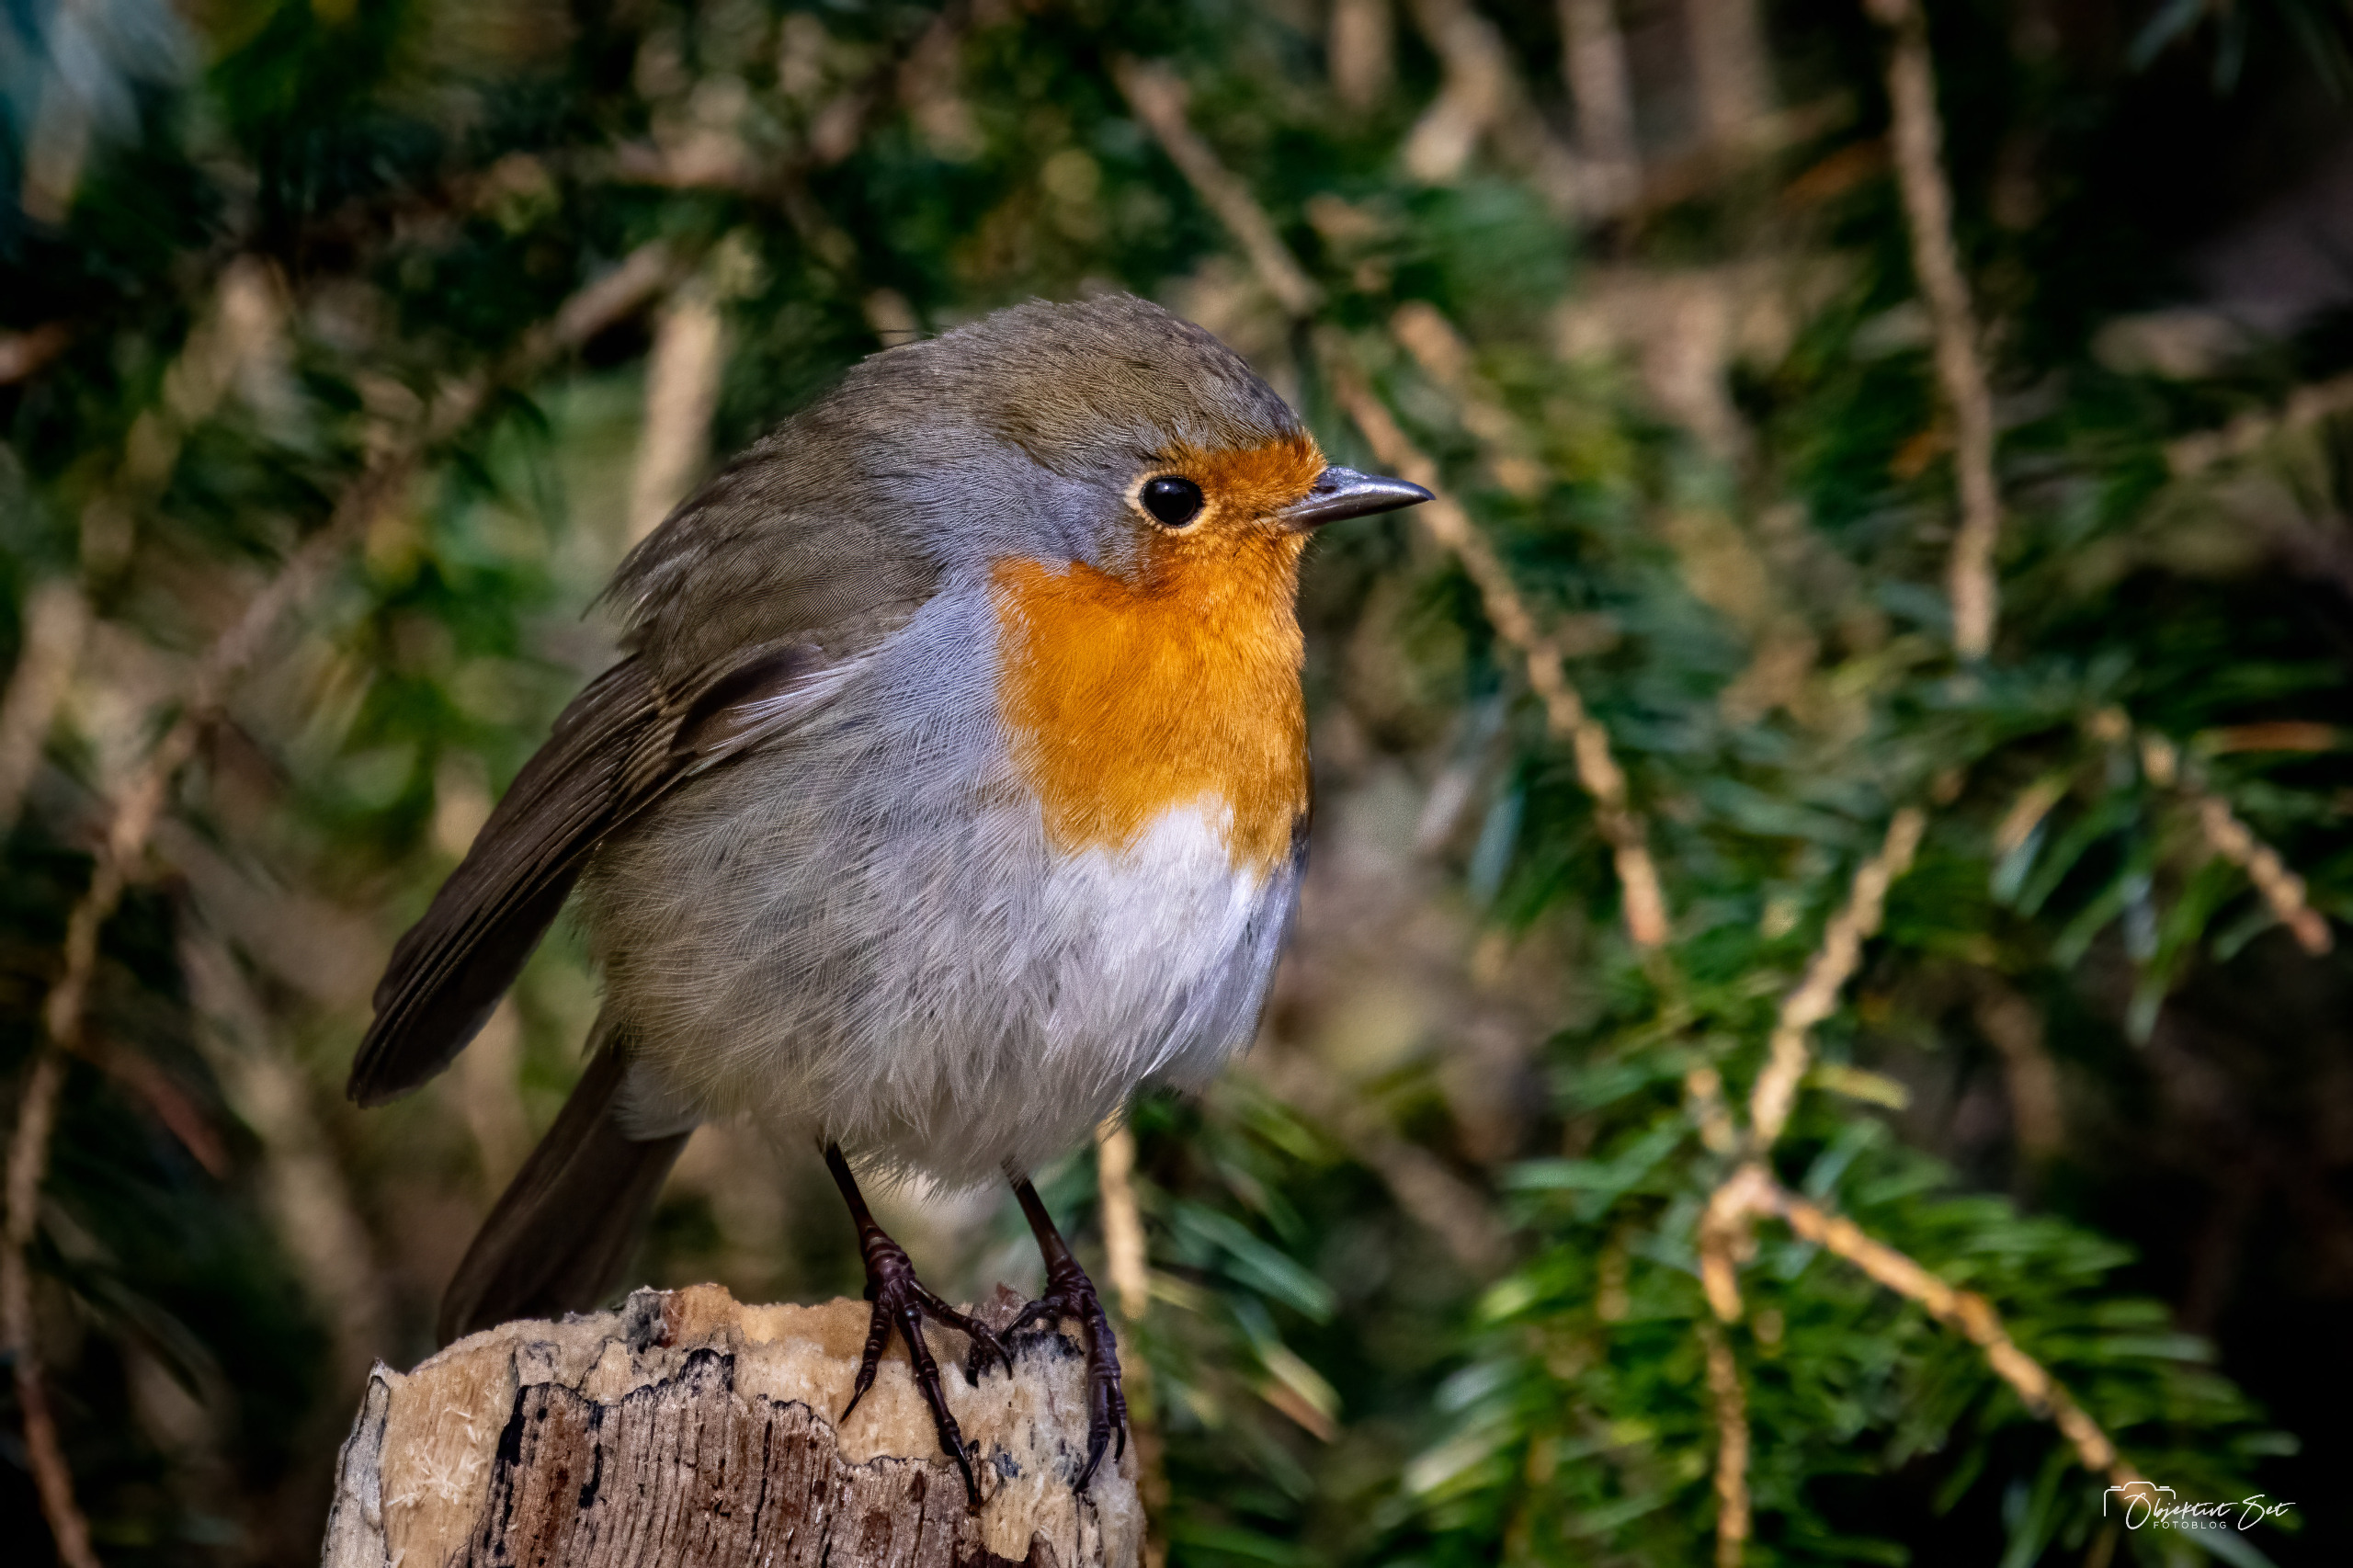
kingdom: Animalia
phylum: Chordata
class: Aves
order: Passeriformes
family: Muscicapidae
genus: Erithacus
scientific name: Erithacus rubecula
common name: Rødhals/rødkælk
